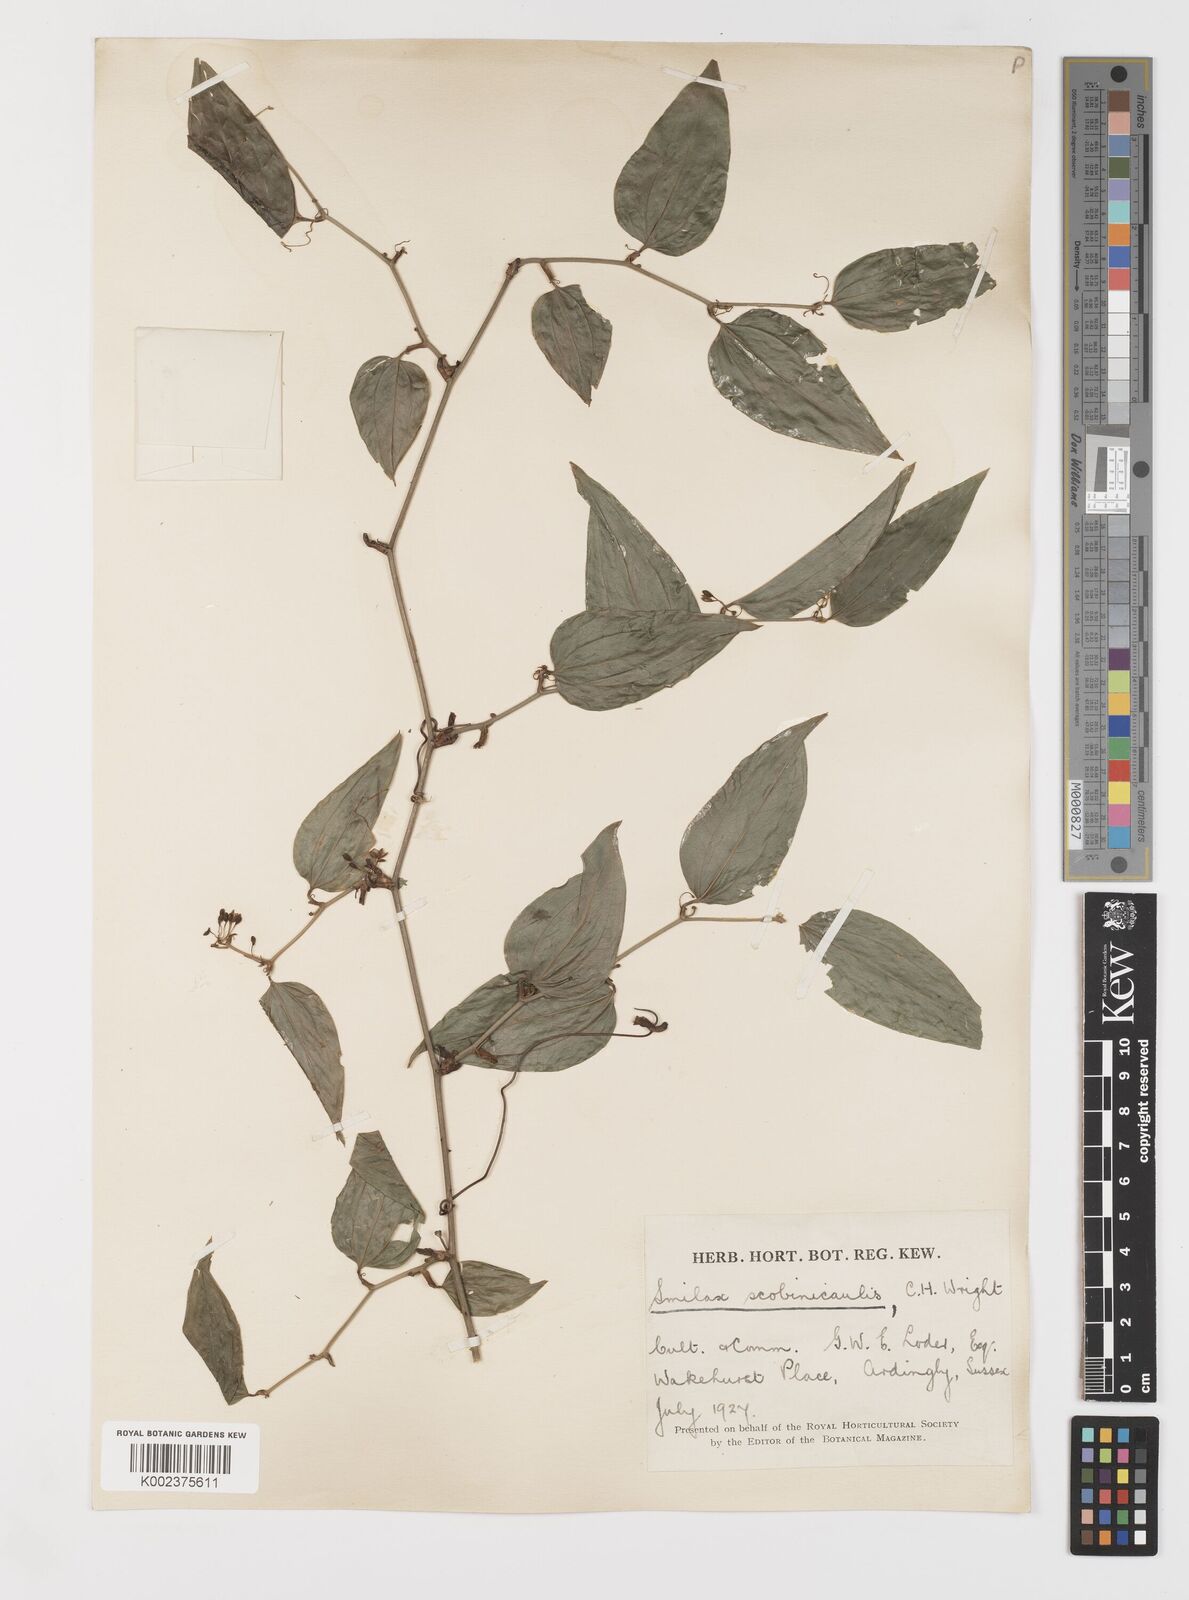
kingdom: Plantae
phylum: Tracheophyta
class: Liliopsida
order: Liliales
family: Smilacaceae
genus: Smilax
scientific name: Smilax scobinicaulis
